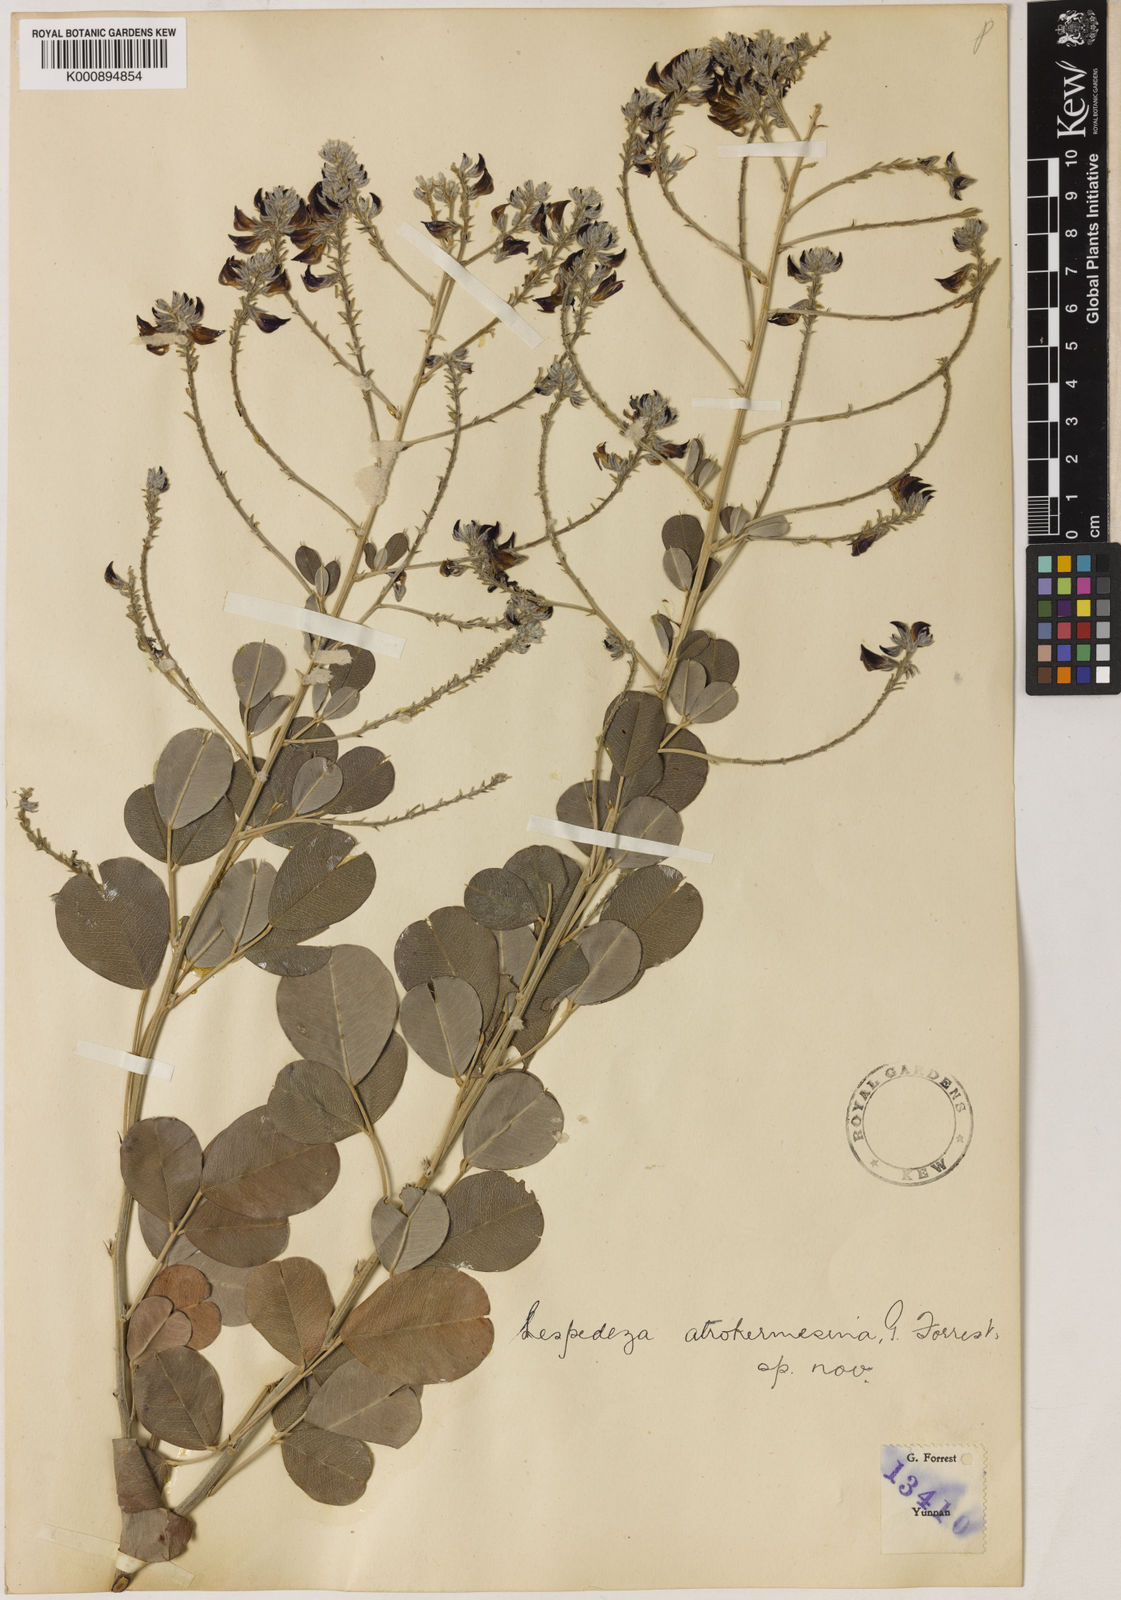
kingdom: Plantae
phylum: Tracheophyta
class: Magnoliopsida
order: Fabales
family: Fabaceae
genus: Campylotropis
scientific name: Campylotropis delavayi
